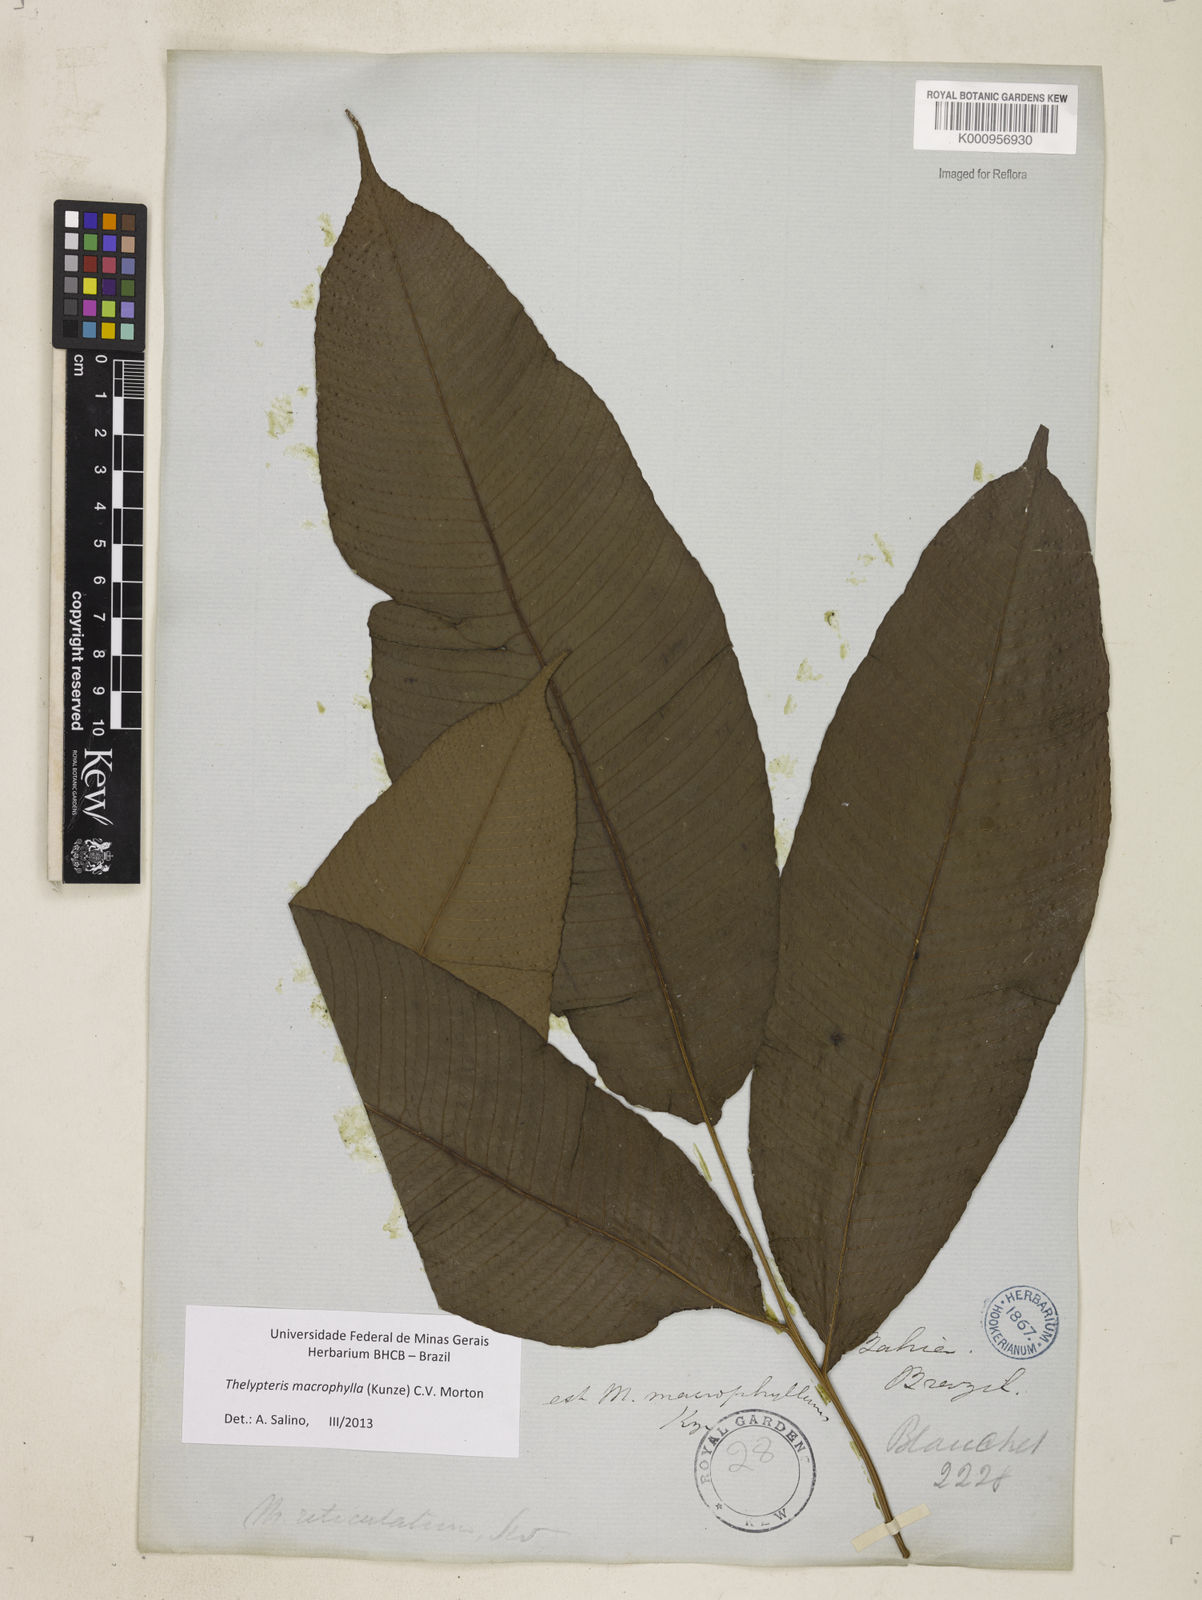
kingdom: Plantae
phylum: Tracheophyta
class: Polypodiopsida
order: Polypodiales
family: Thelypteridaceae
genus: Meniscium
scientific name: Meniscium macrophyllum
